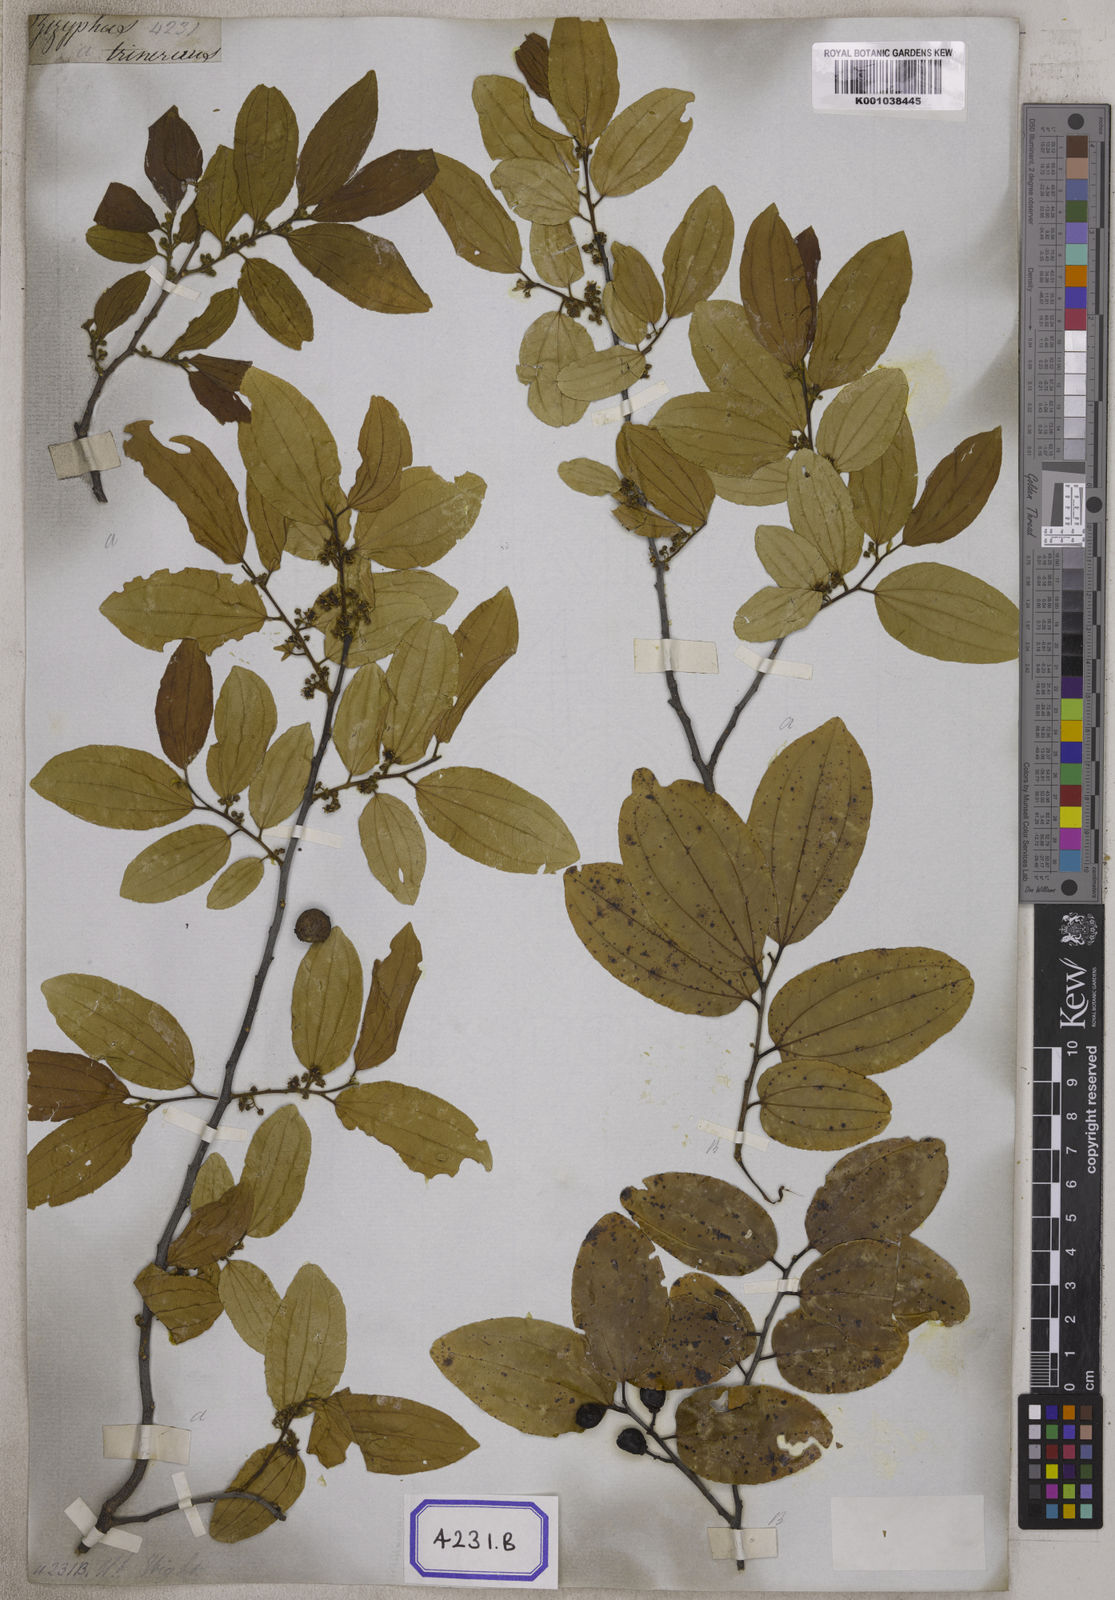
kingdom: Plantae
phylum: Tracheophyta
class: Magnoliopsida
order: Rosales
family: Rhamnaceae
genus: Ziziphus
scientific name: Ziziphus glabrata
